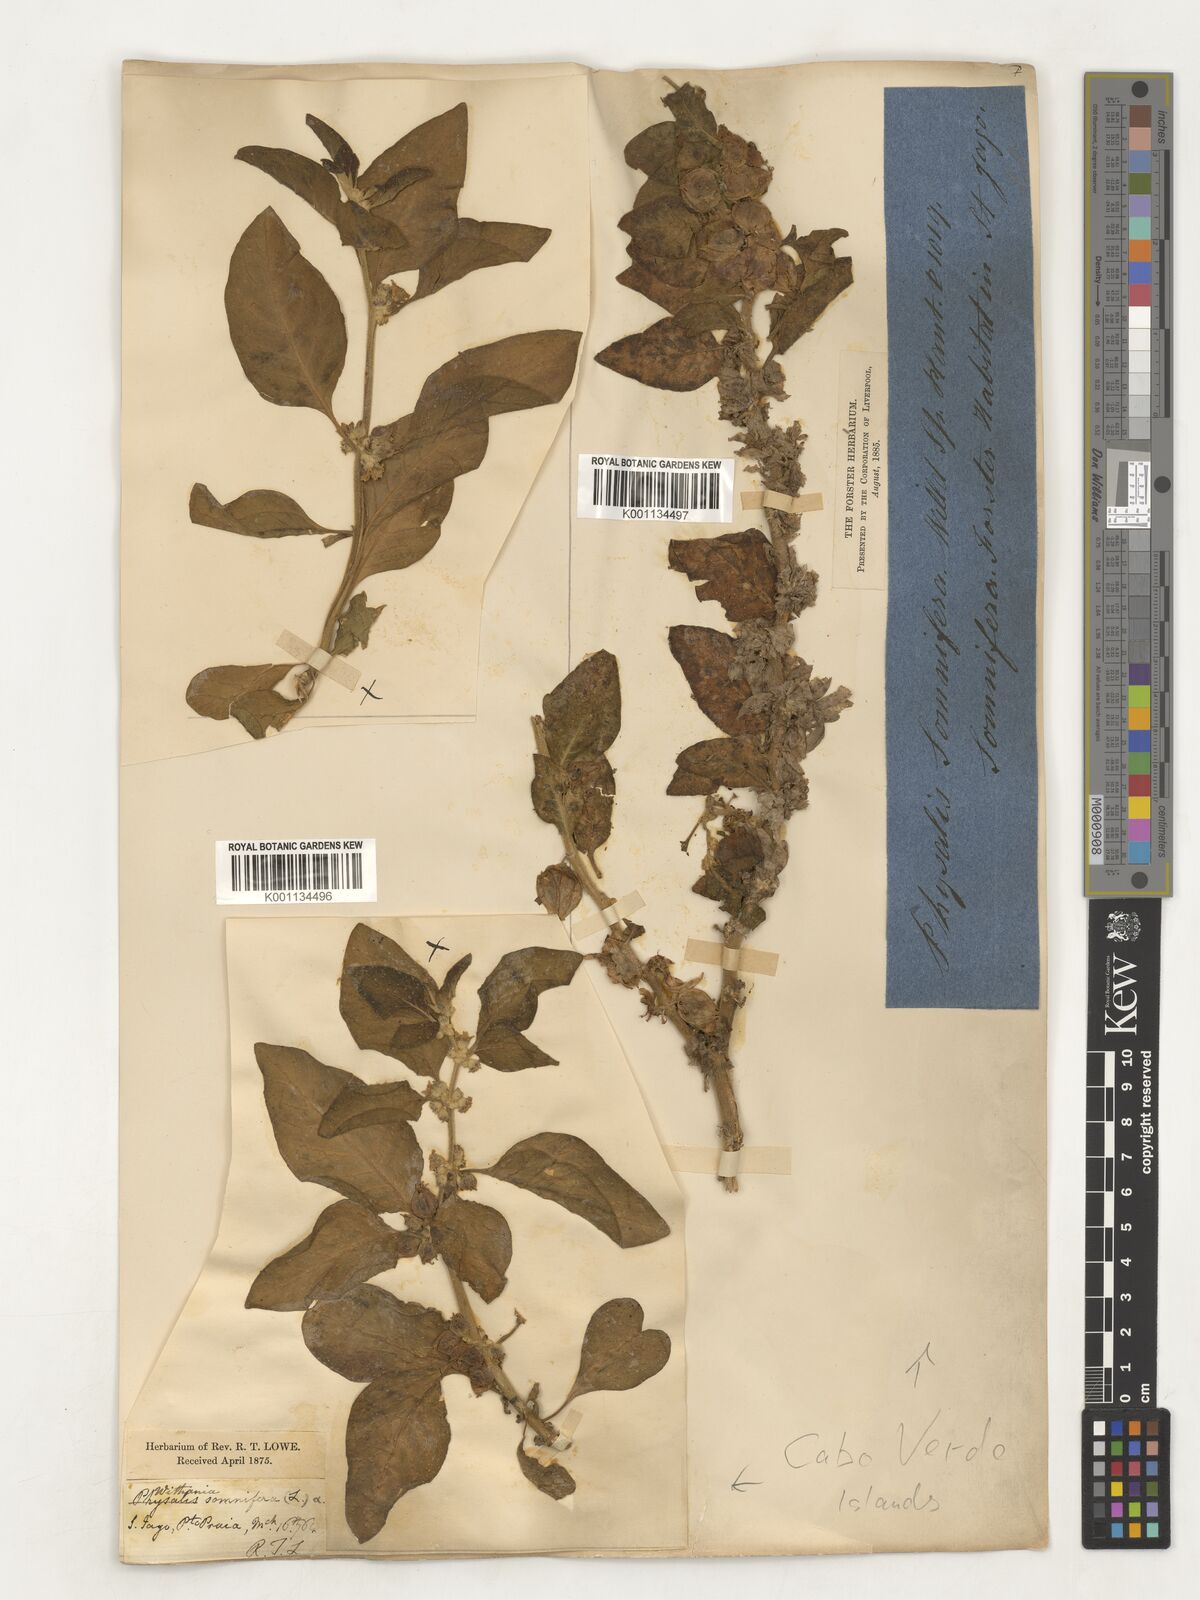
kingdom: Plantae
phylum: Tracheophyta
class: Magnoliopsida
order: Solanales
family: Solanaceae
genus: Withania
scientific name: Withania somnifera
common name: Winter-cherry
